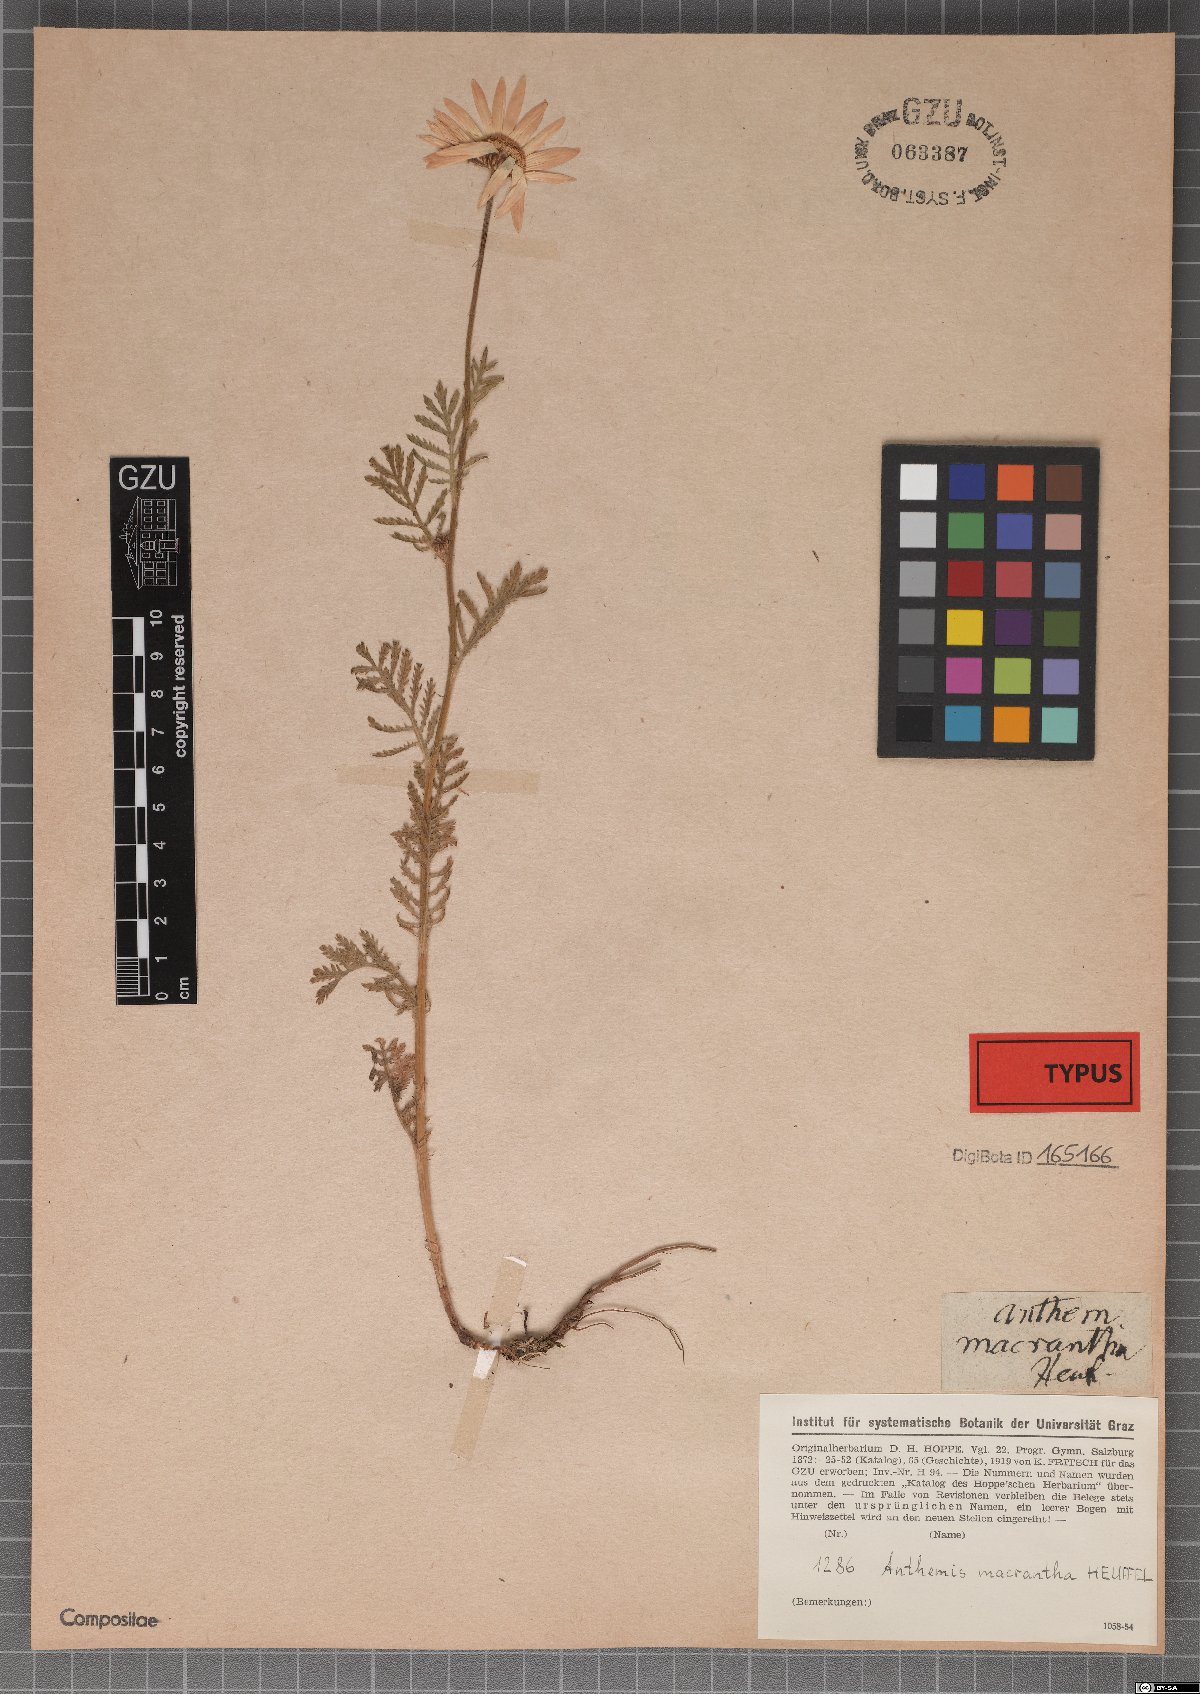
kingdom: Plantae
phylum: Tracheophyta
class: Magnoliopsida
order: Asterales
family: Asteraceae
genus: Cota
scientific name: Cota macrantha
